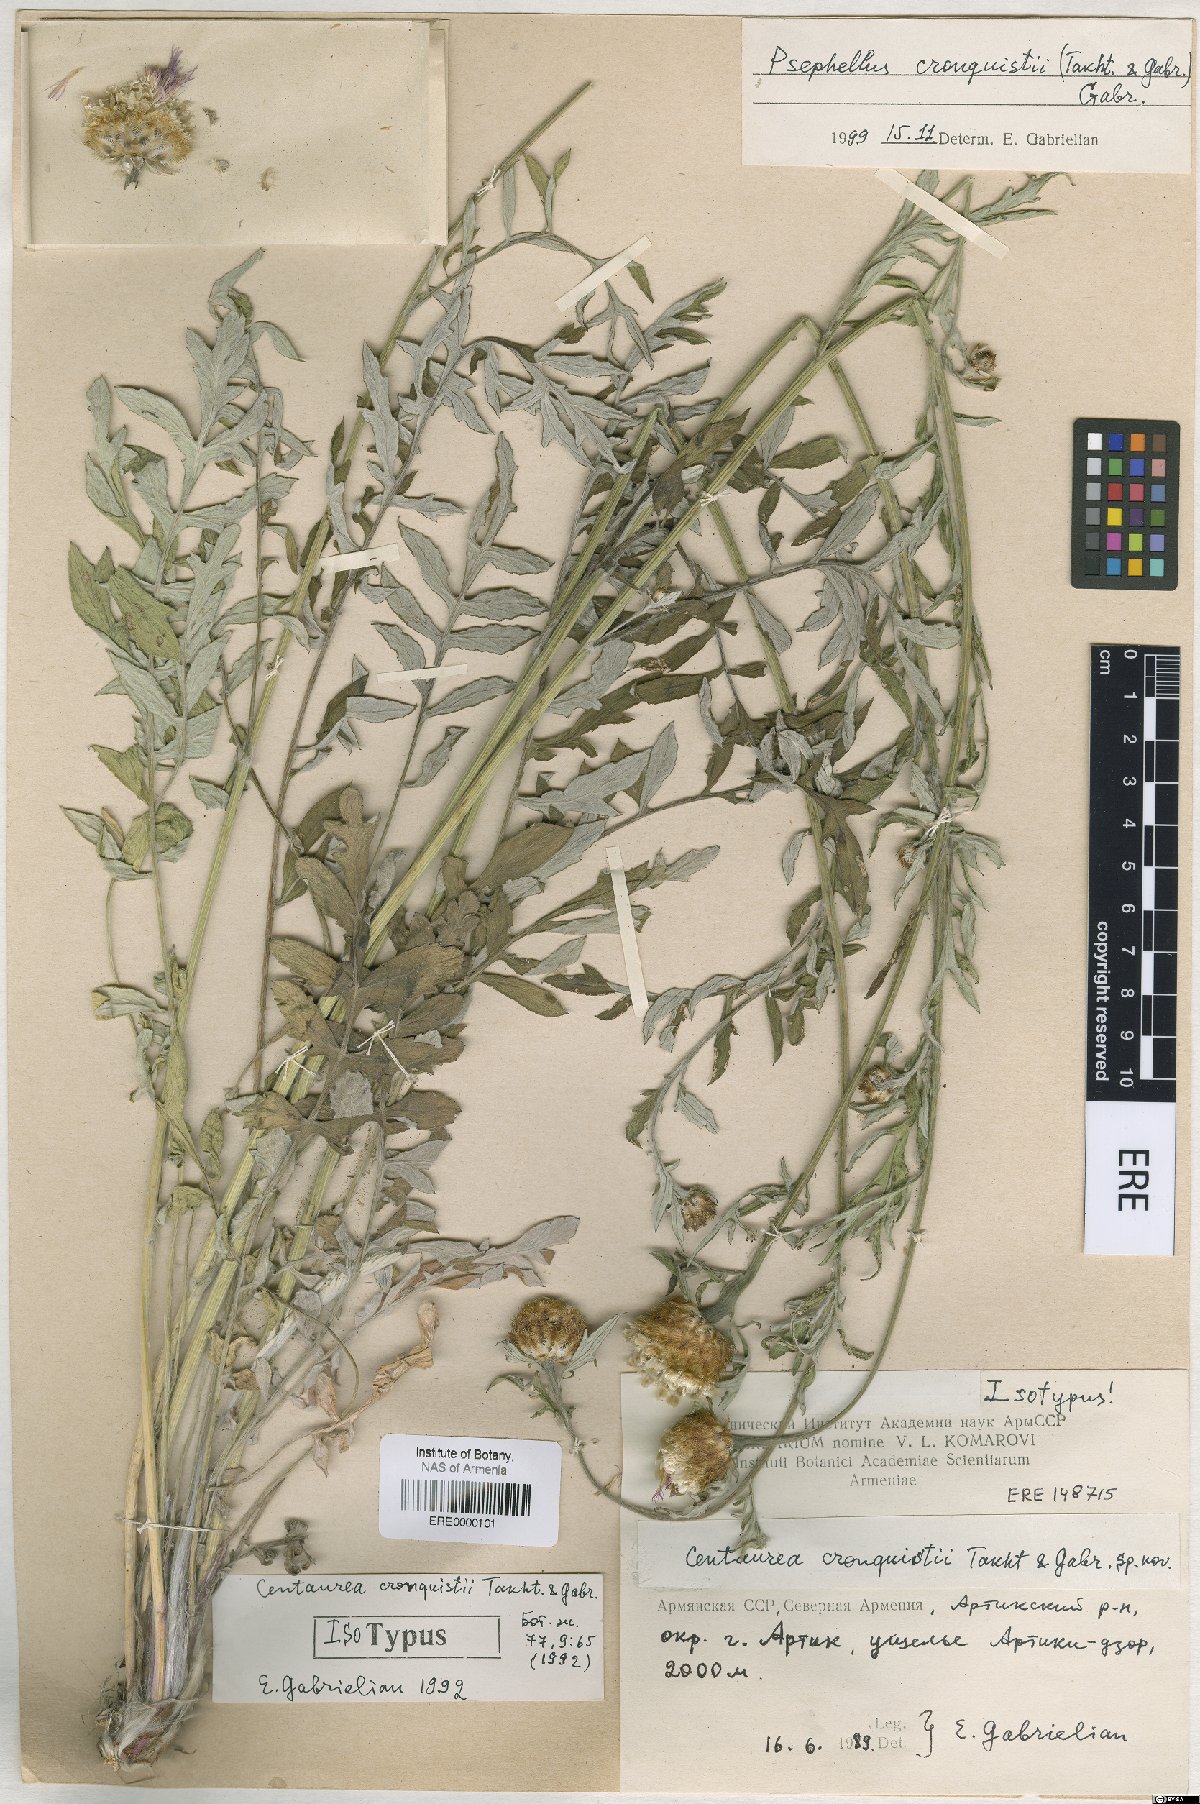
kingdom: Plantae
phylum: Tracheophyta
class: Magnoliopsida
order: Asterales
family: Asteraceae
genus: Psephellus
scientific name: Psephellus cronquistii
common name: Cronquists's cornflower
